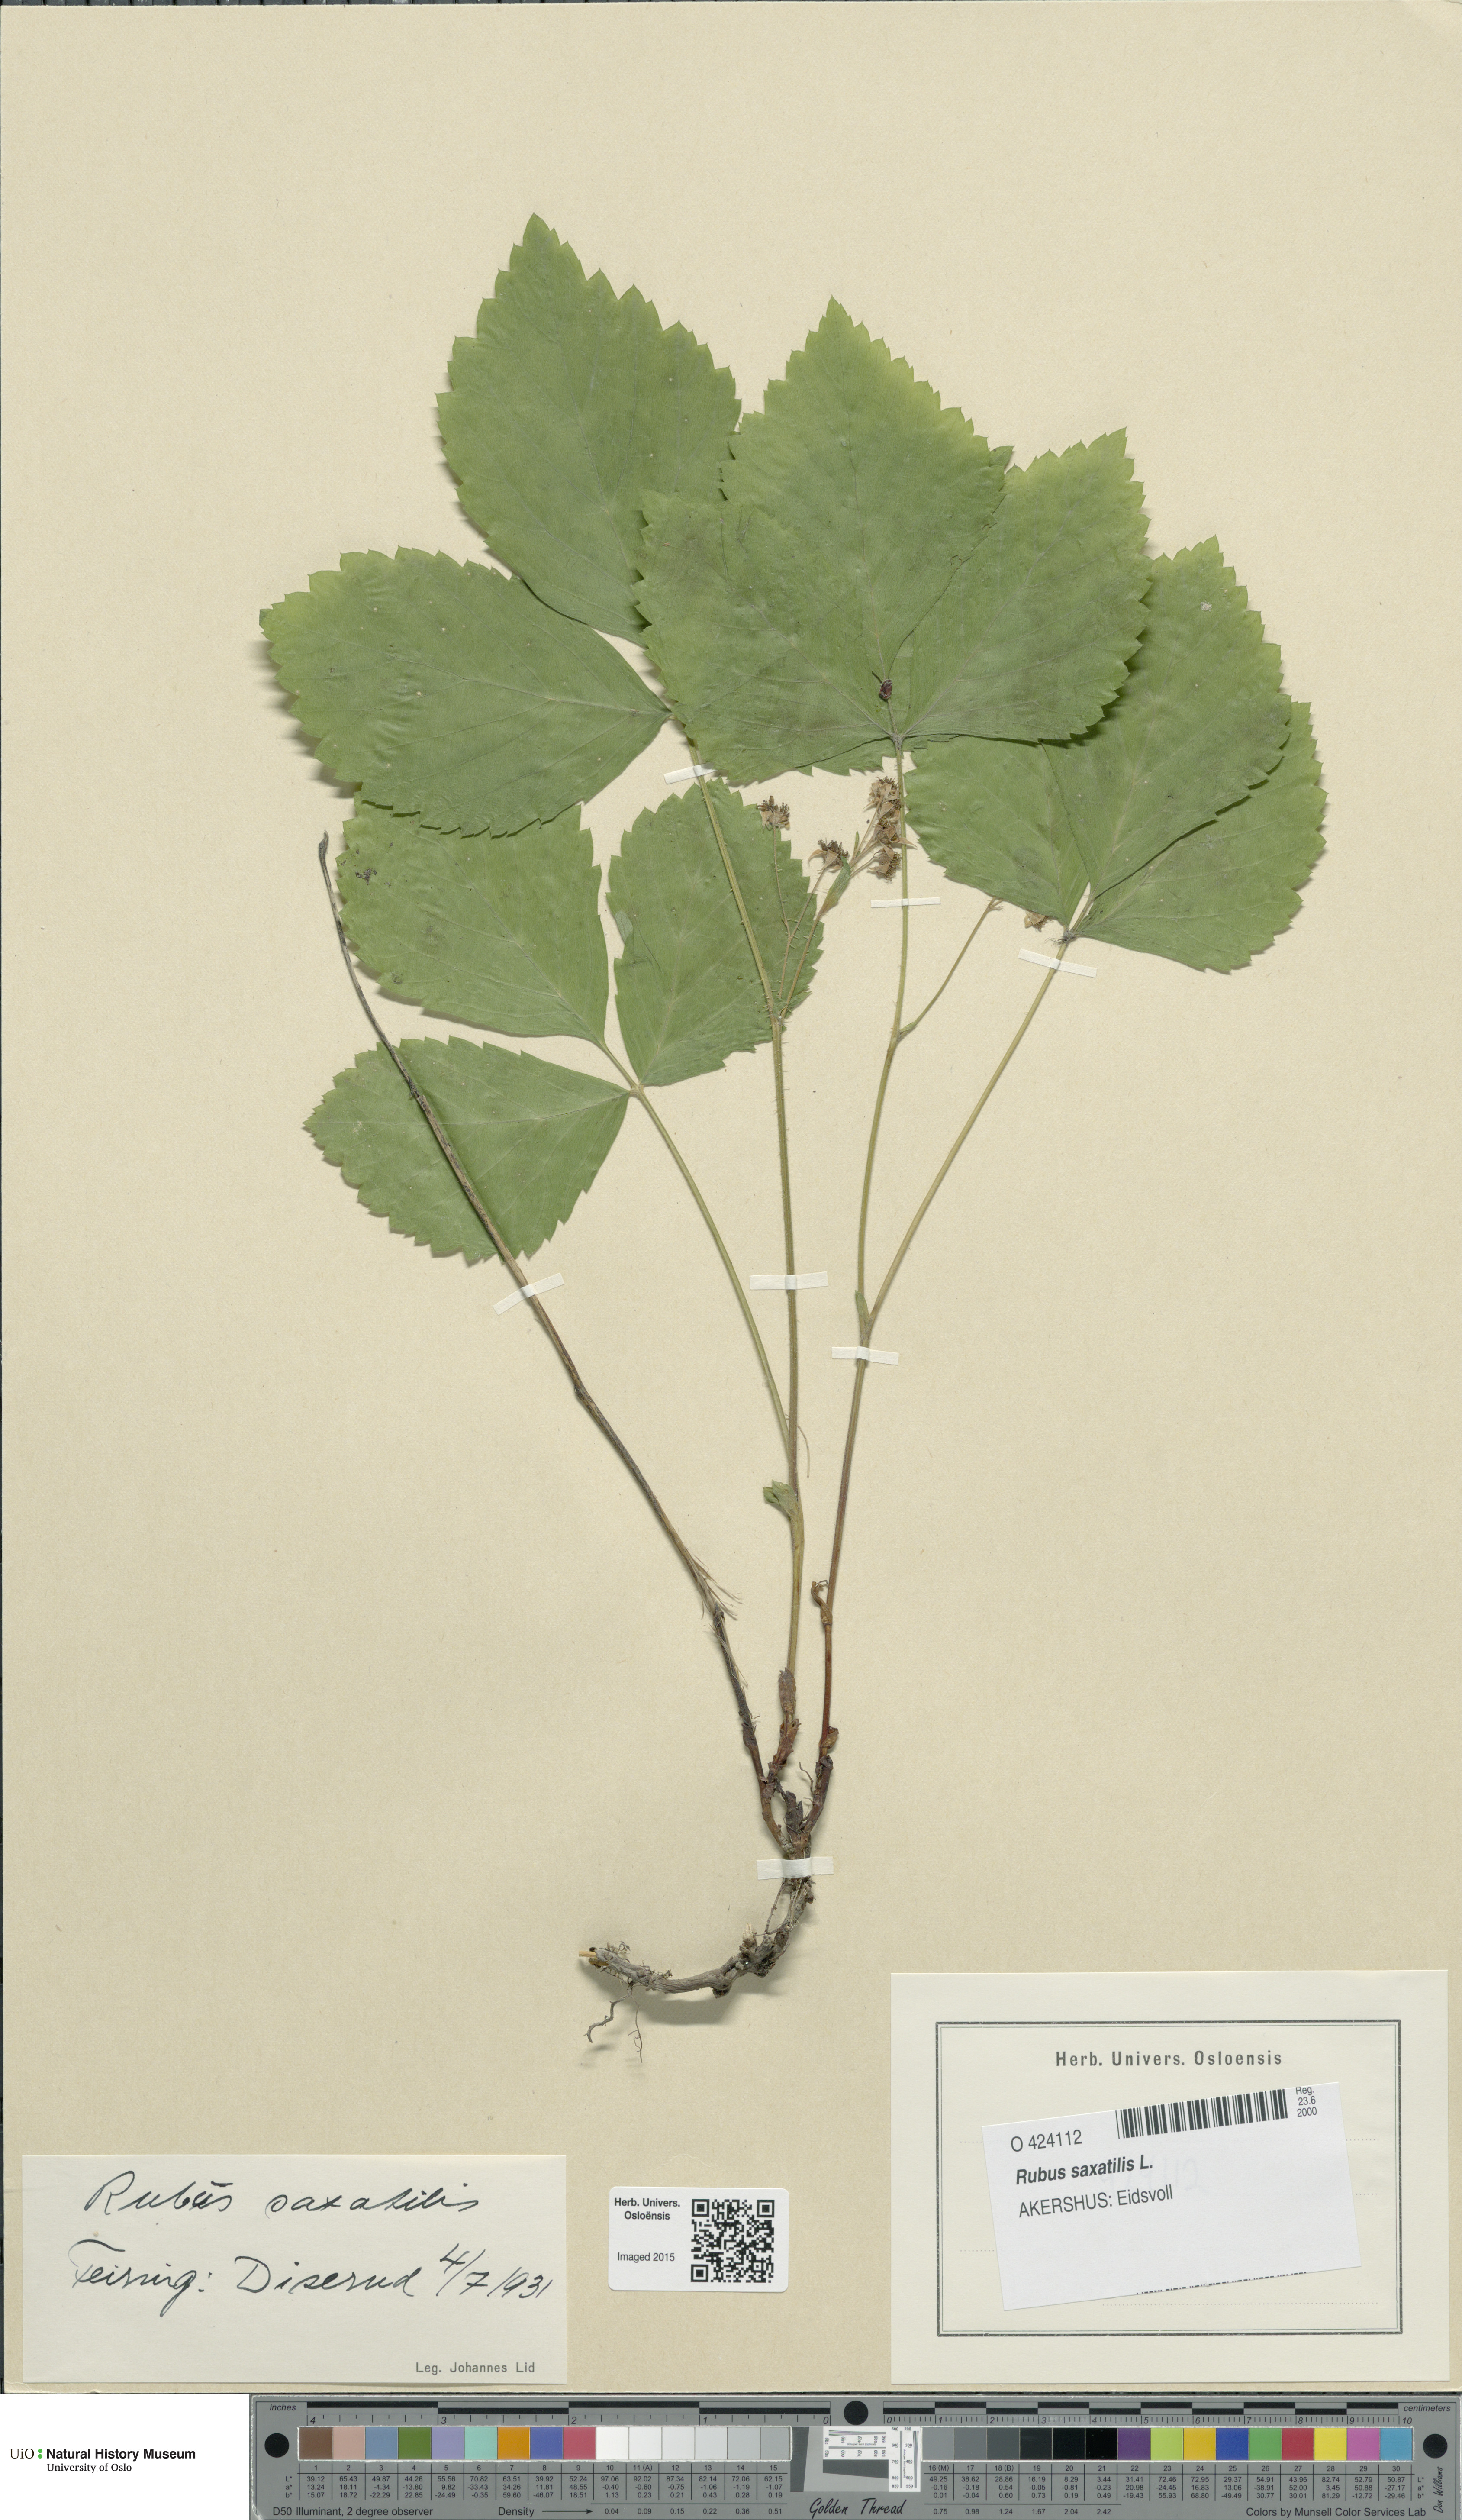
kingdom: Plantae
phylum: Tracheophyta
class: Magnoliopsida
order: Rosales
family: Rosaceae
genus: Rubus
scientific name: Rubus saxatilis
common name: Stone bramble
